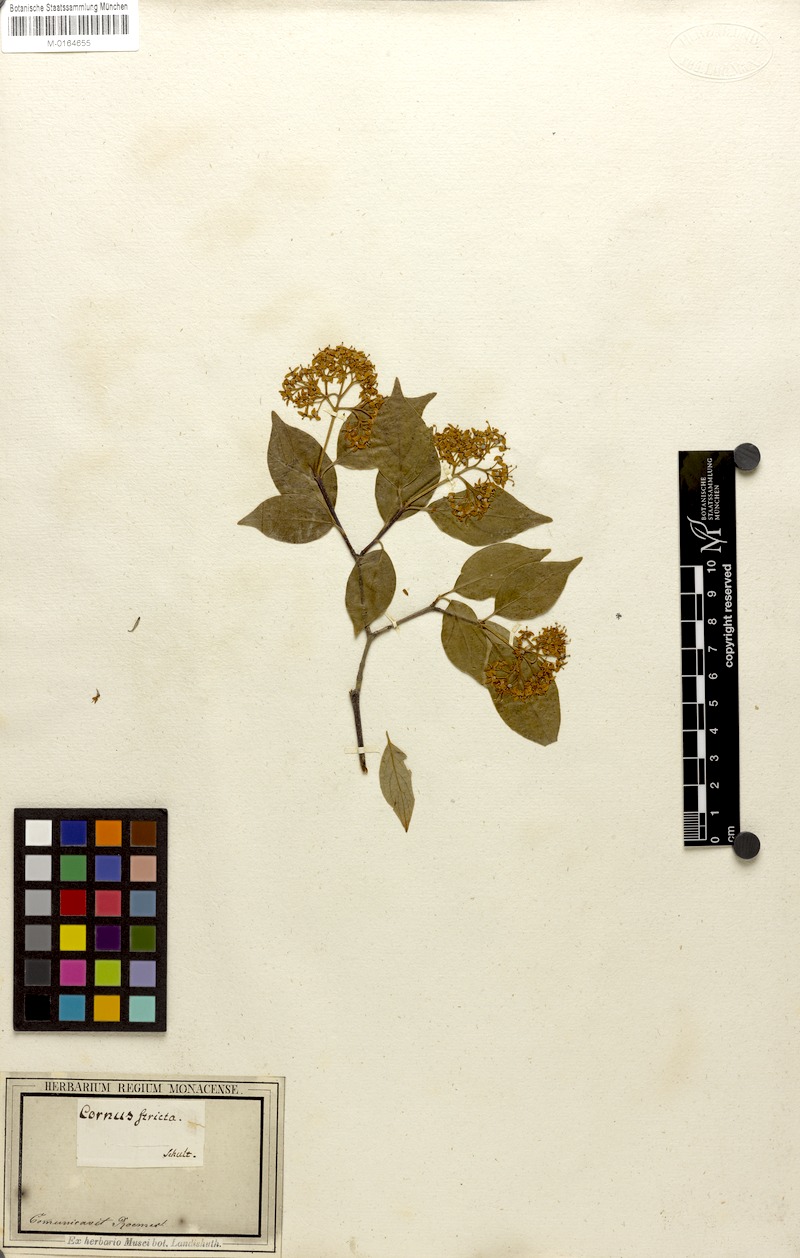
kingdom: Plantae
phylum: Tracheophyta
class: Magnoliopsida
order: Cornales
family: Cornaceae
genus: Cornus
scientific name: Cornus foemina
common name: Swamp dogwood
